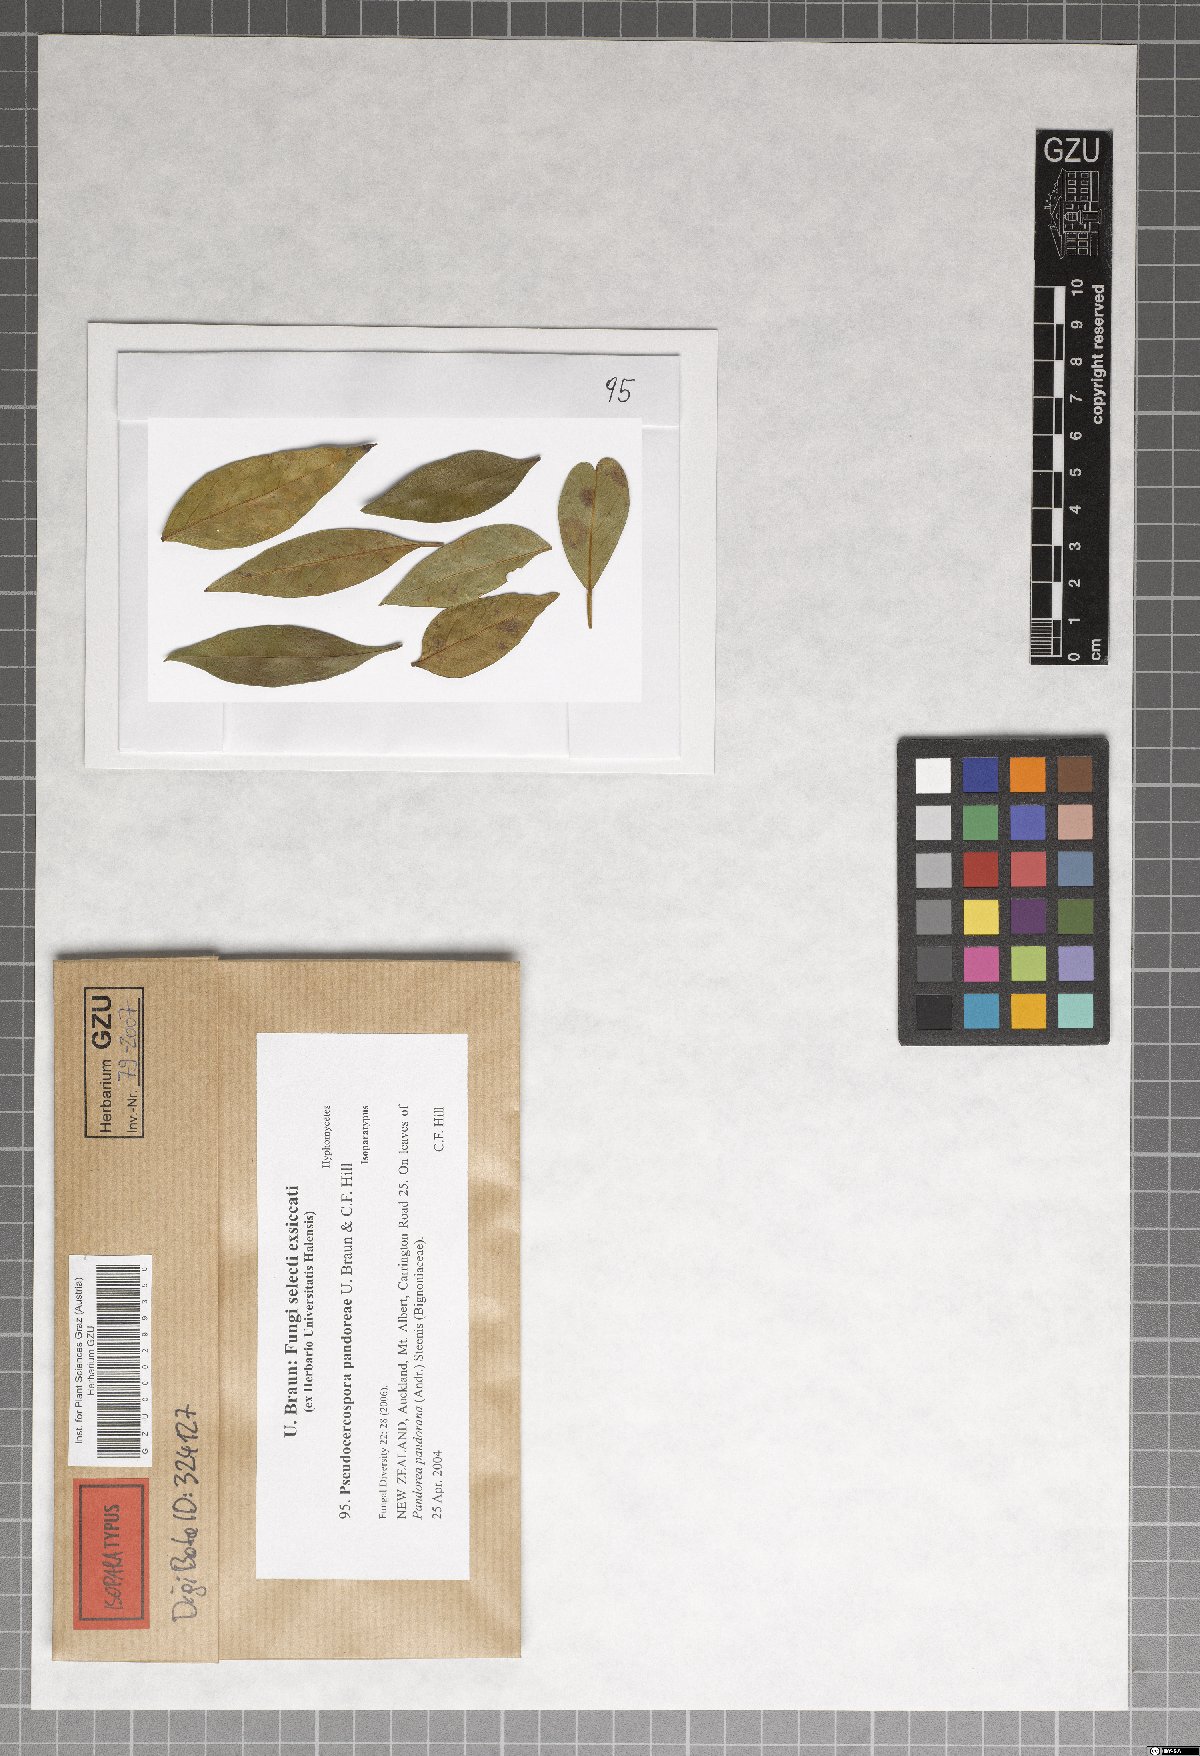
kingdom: Fungi
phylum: Ascomycota
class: Dothideomycetes
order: Mycosphaerellales
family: Mycosphaerellaceae
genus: Pseudocercospora
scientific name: Pseudocercospora pandoreae
